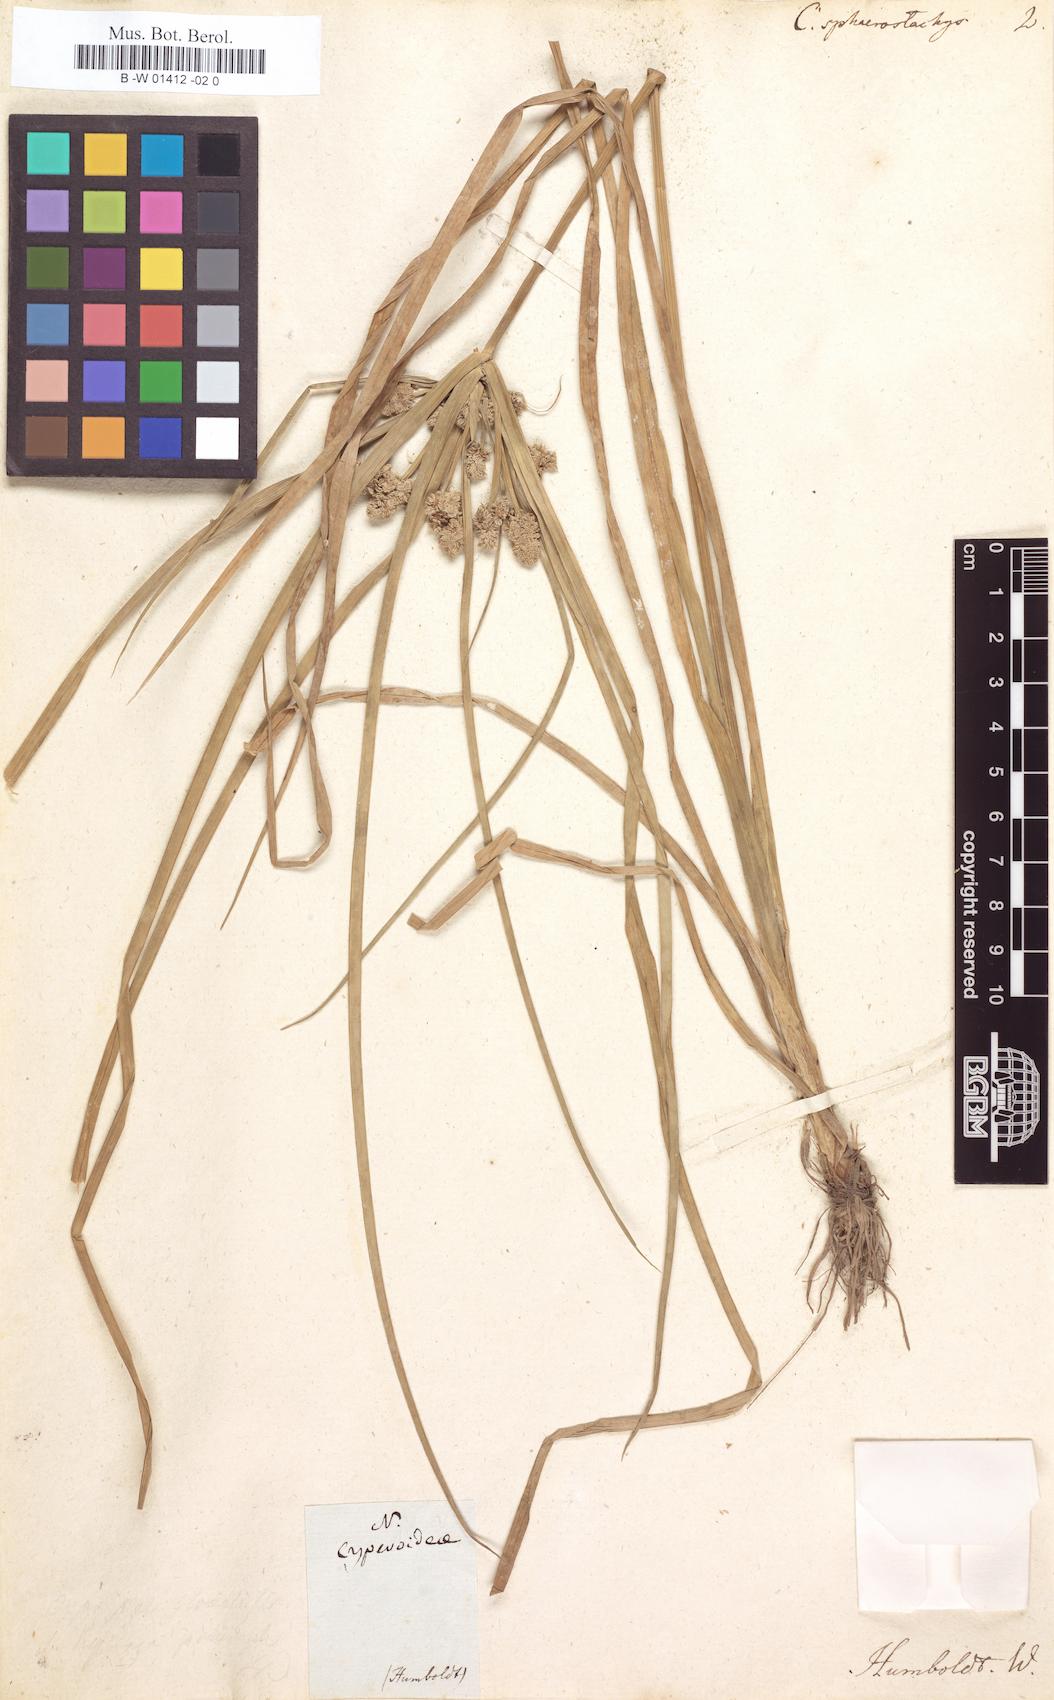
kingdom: Plantae
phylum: Tracheophyta
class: Liliopsida
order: Poales
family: Cyperaceae
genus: Cyperus
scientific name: Cyperus luzulae
